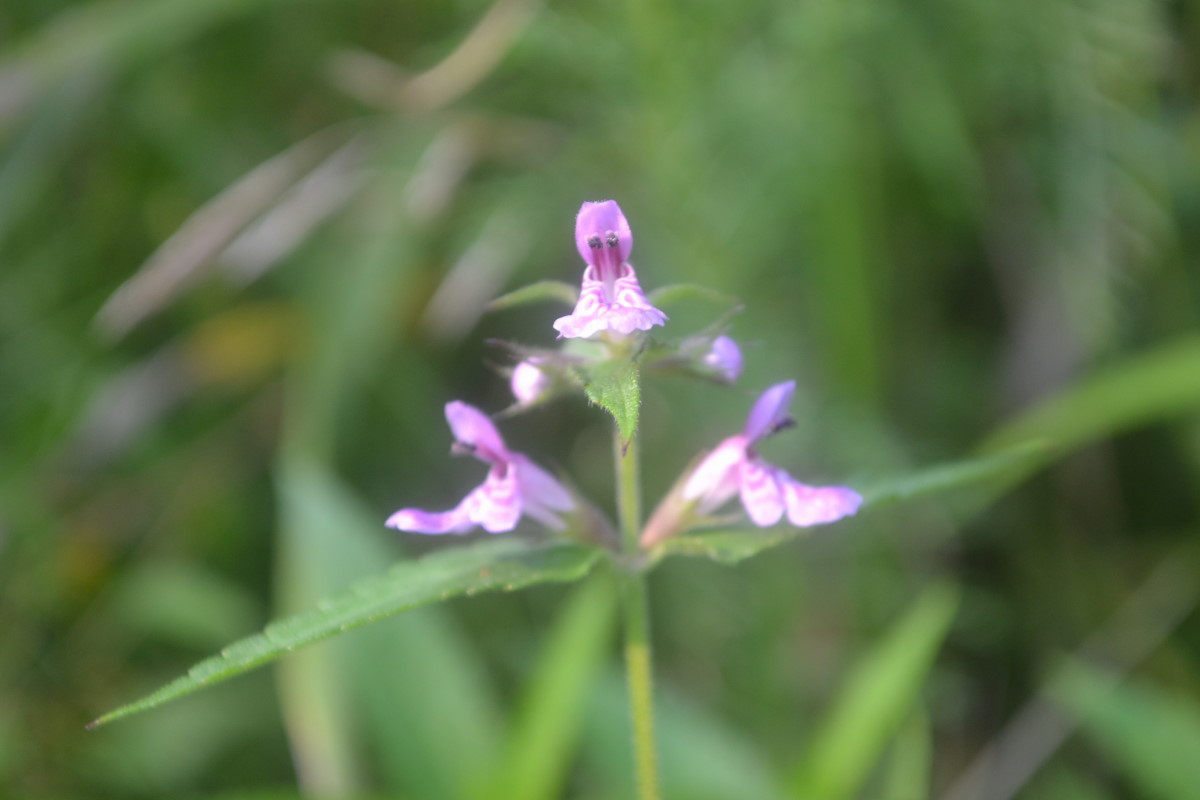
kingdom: Plantae
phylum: Tracheophyta
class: Magnoliopsida
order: Lamiales
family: Lamiaceae
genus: Stachys
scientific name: Stachys palustris
